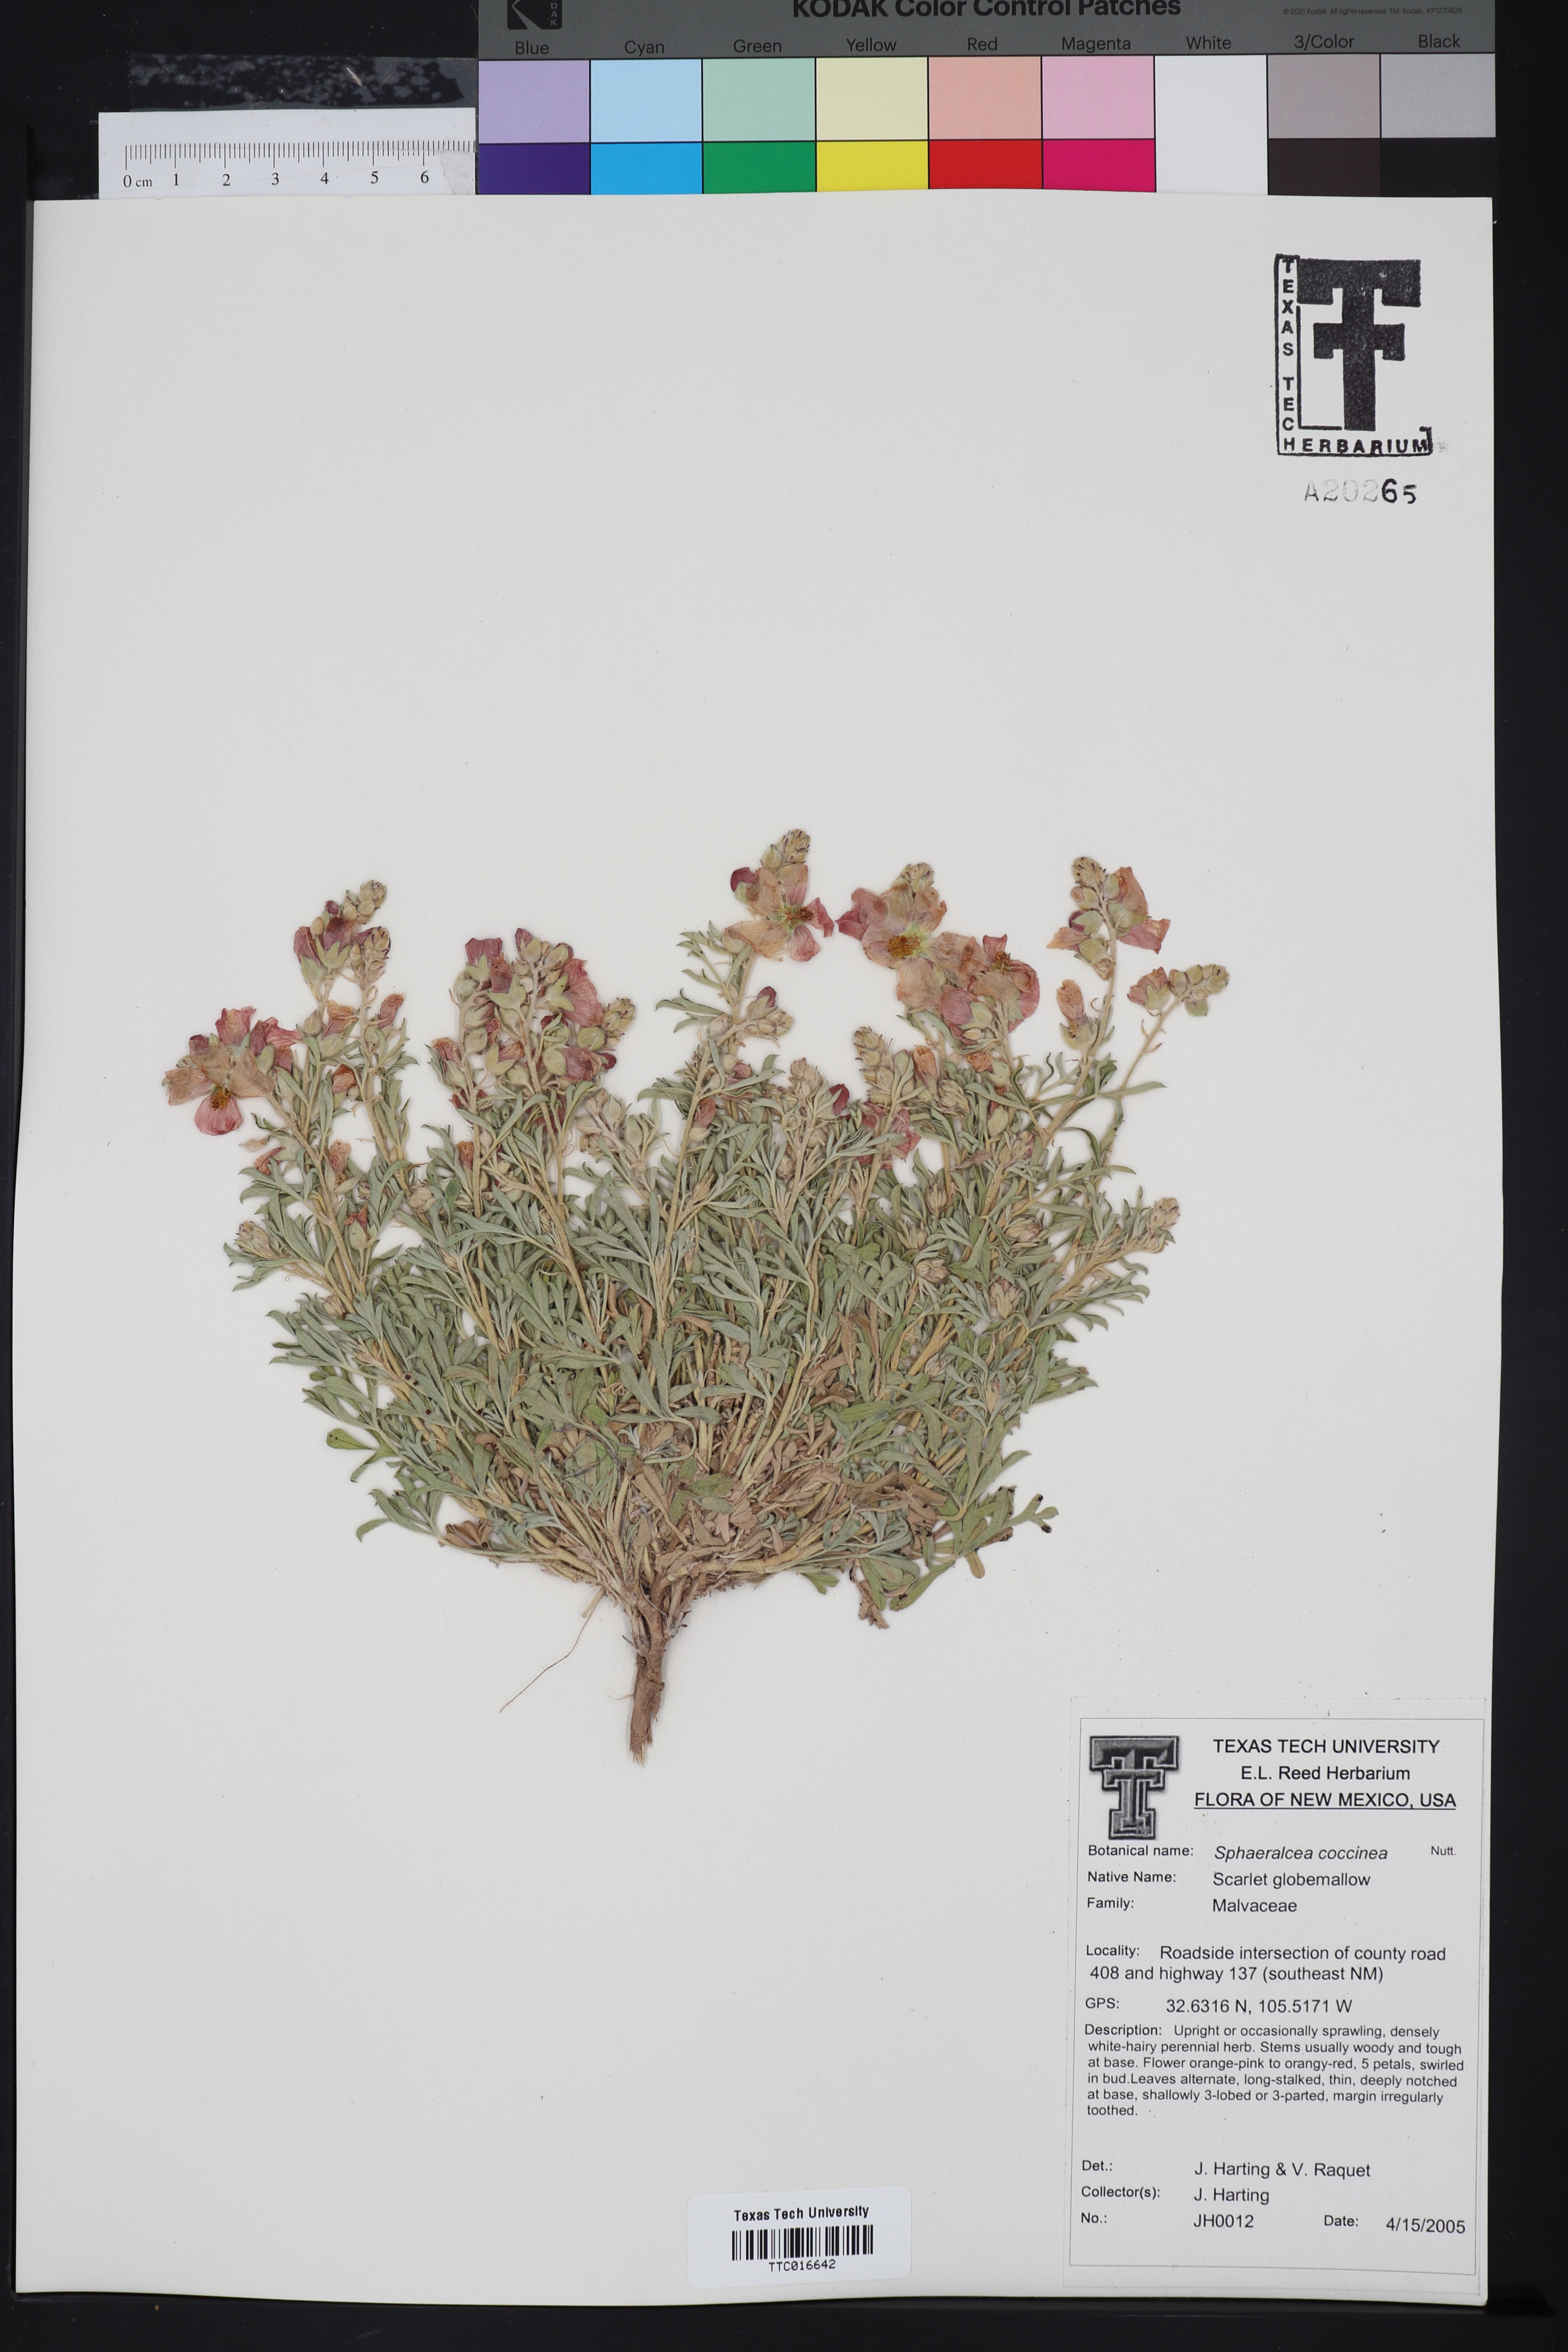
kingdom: Plantae
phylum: Tracheophyta
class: Magnoliopsida
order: Malvales
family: Malvaceae
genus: Sphaeralcea
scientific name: Sphaeralcea coccinea
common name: Moss-rose
